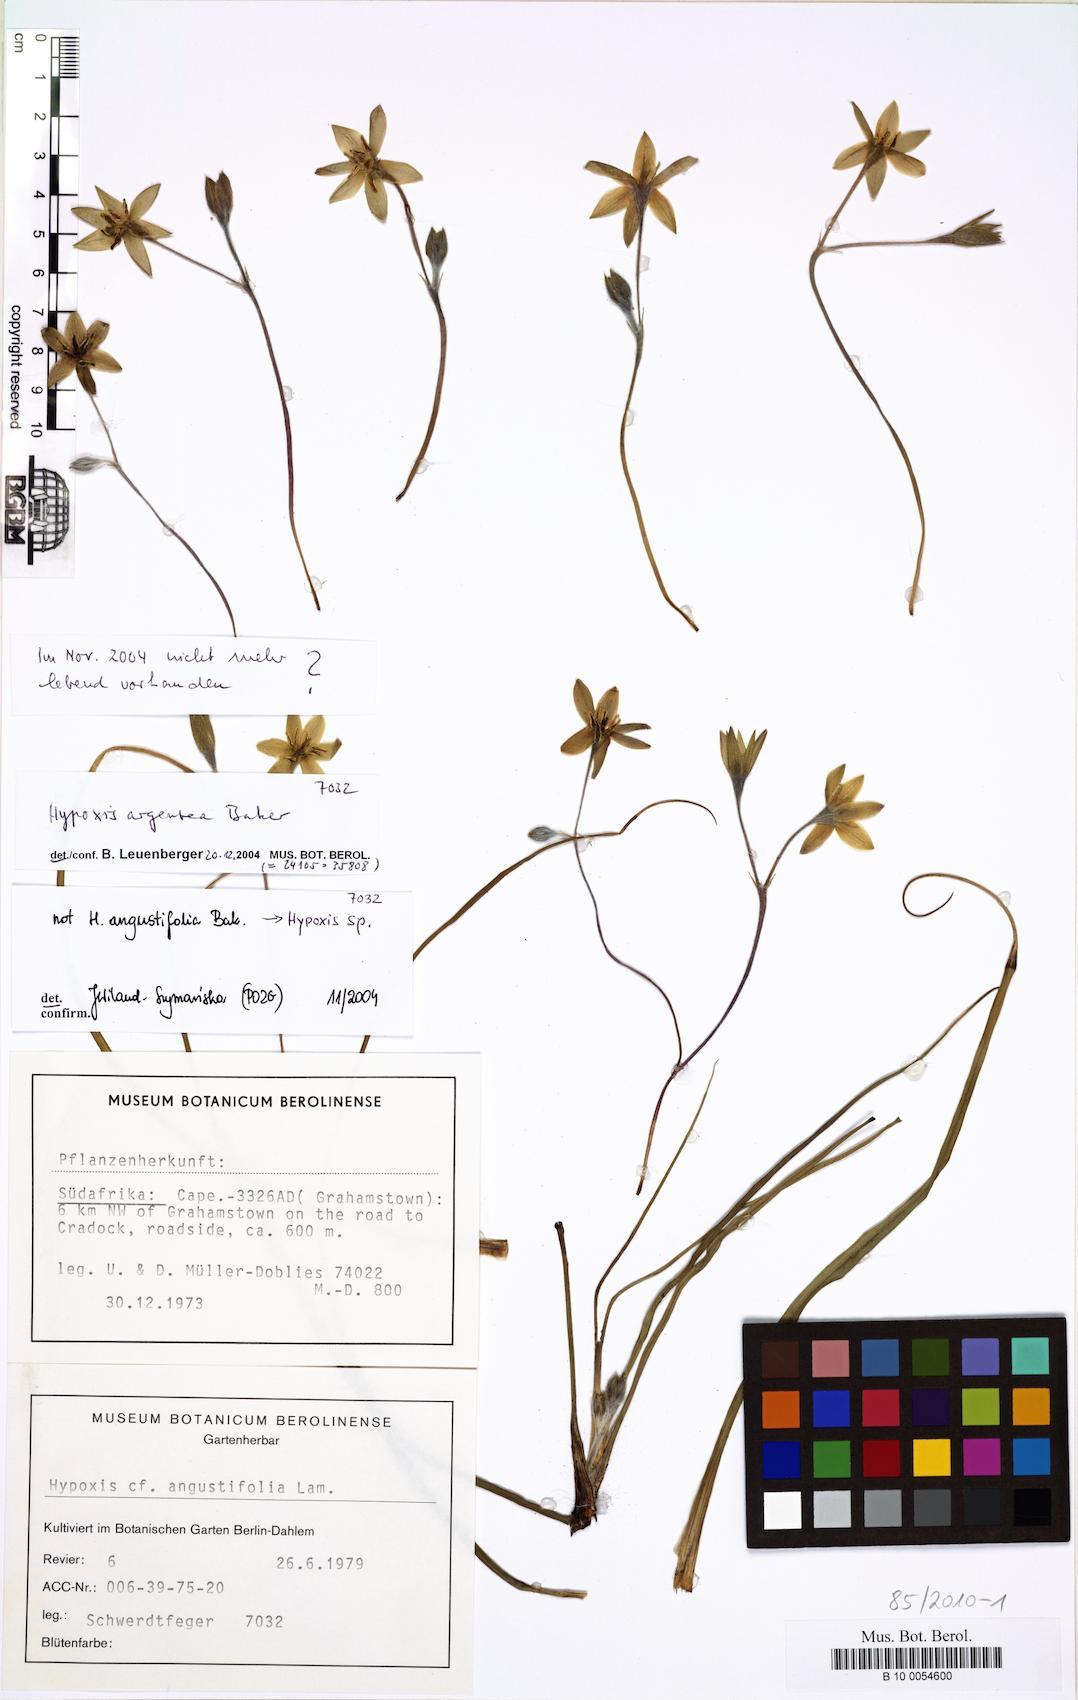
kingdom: Plantae
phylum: Tracheophyta
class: Liliopsida
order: Asparagales
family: Hypoxidaceae
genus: Hypoxis
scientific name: Hypoxis argentea
